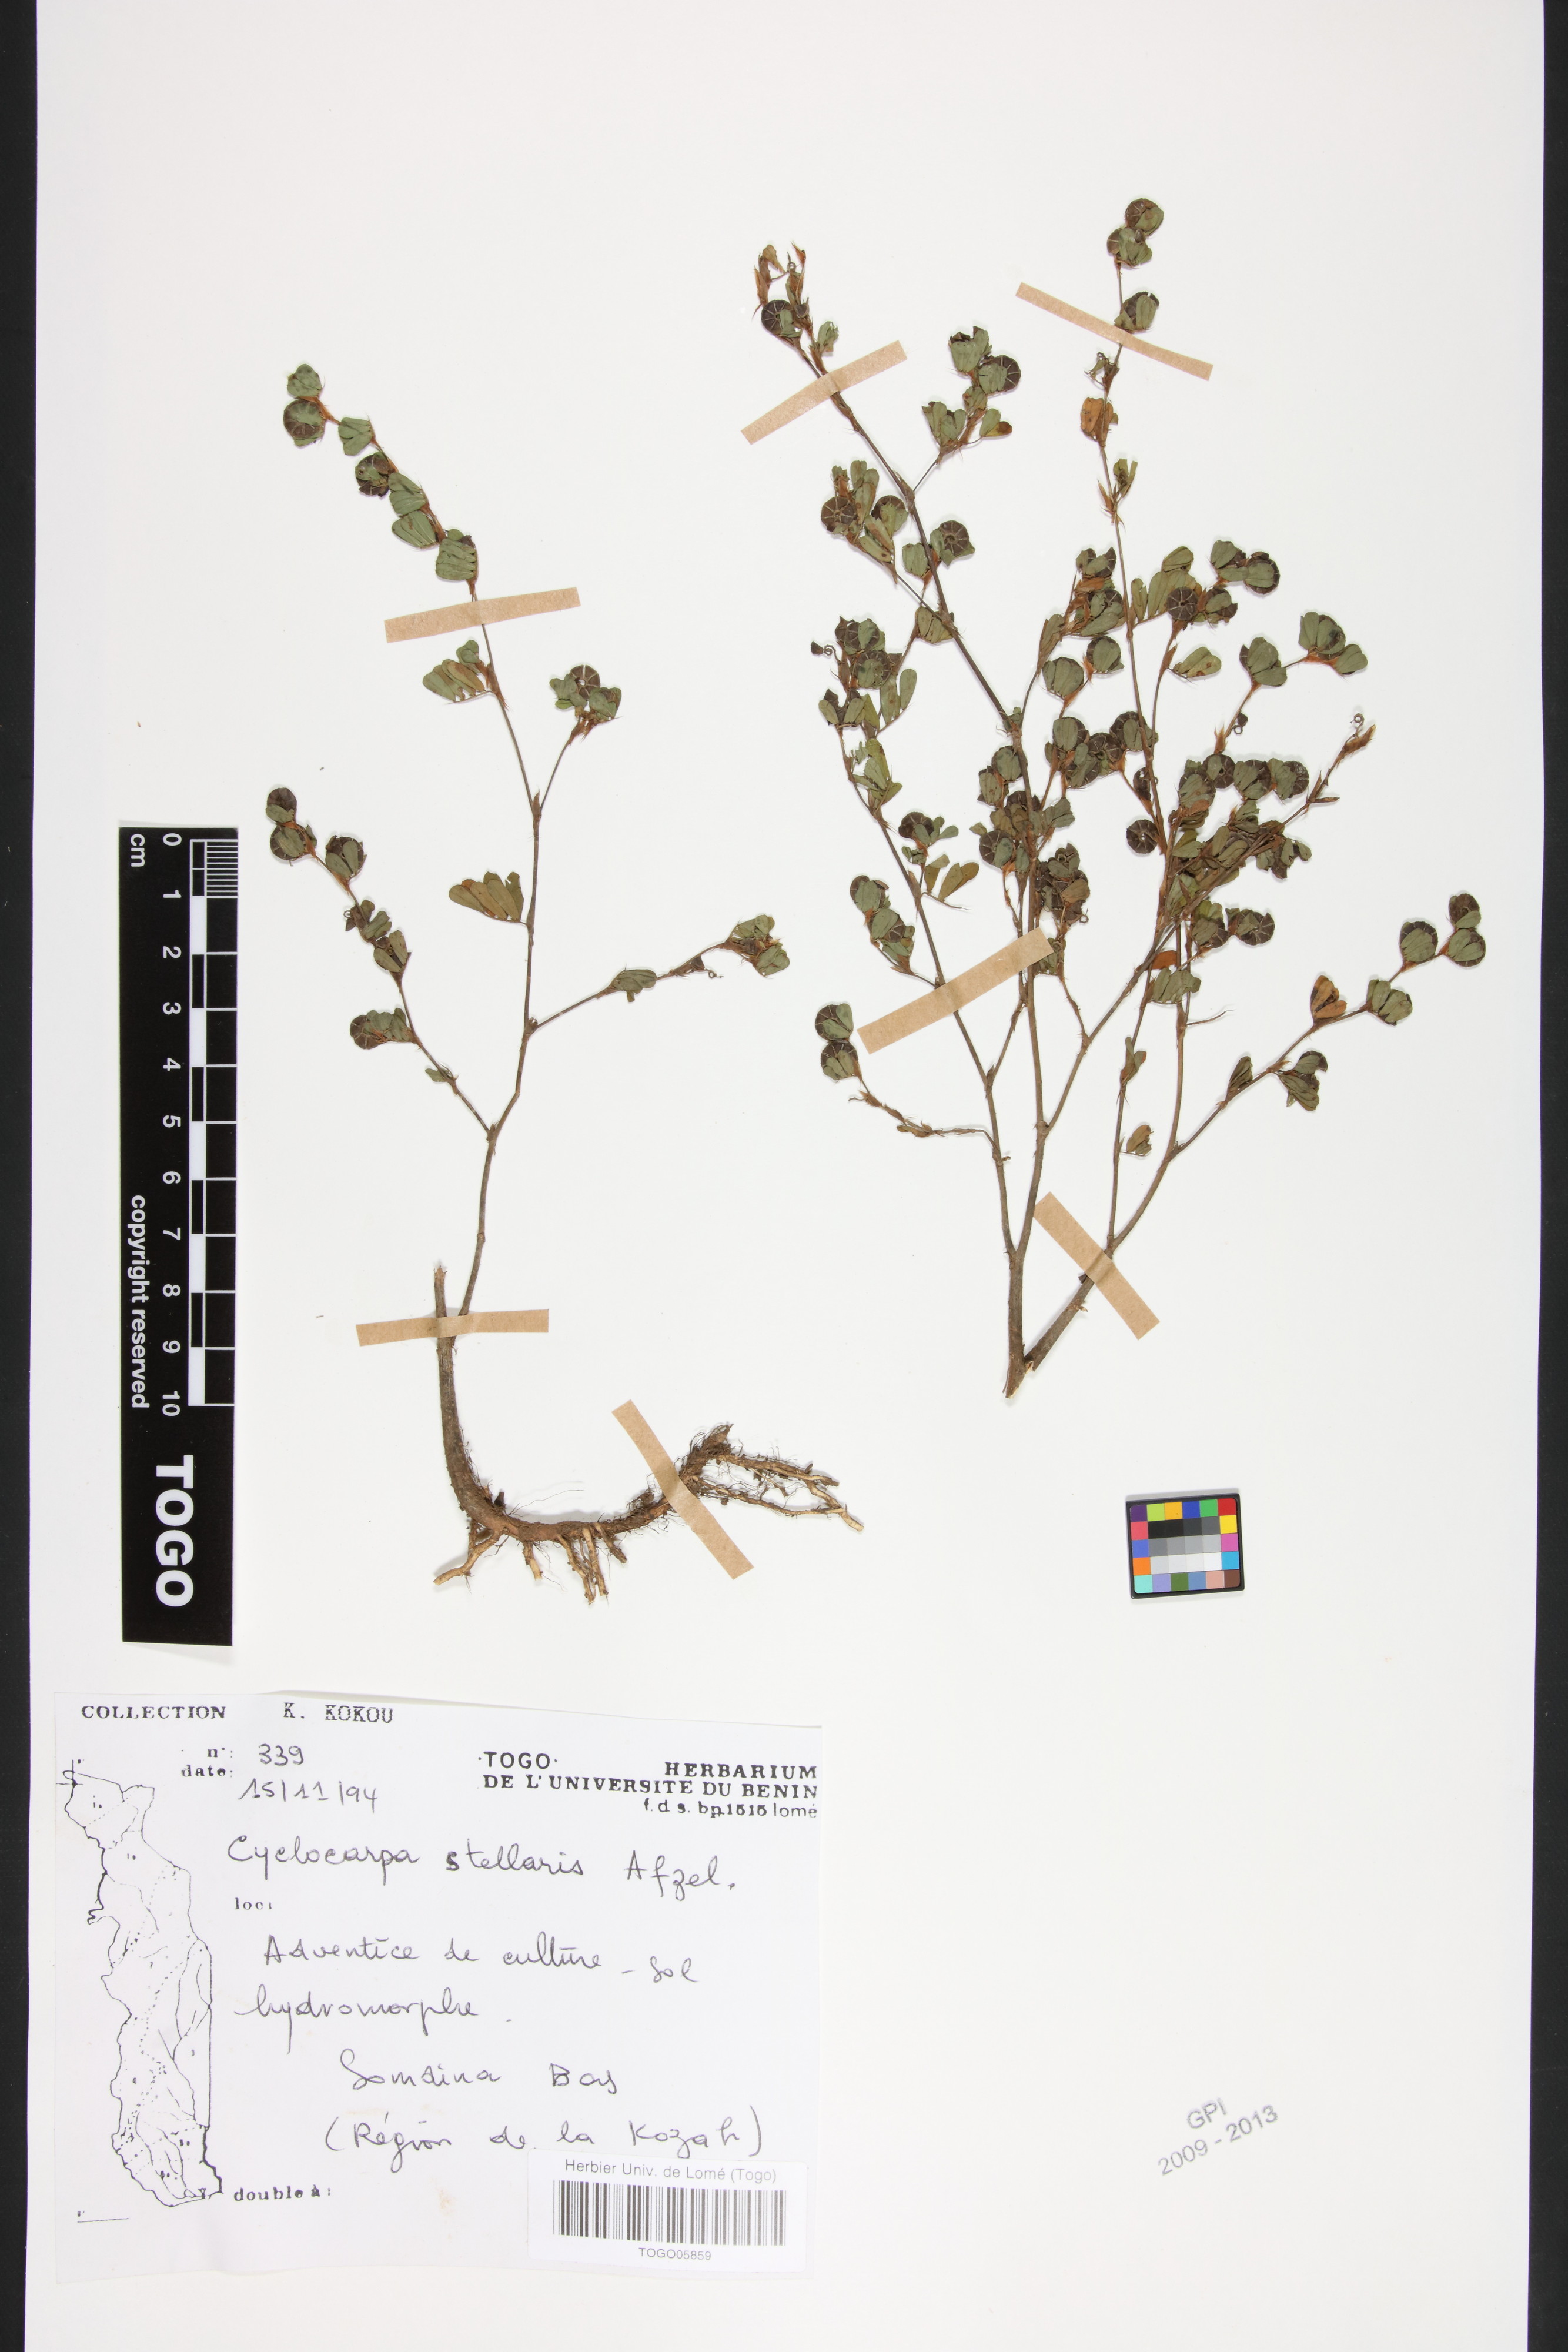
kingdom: Plantae
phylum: Tracheophyta
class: Magnoliopsida
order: Fabales
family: Fabaceae
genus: Cyclocarpa
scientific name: Cyclocarpa stellaris
